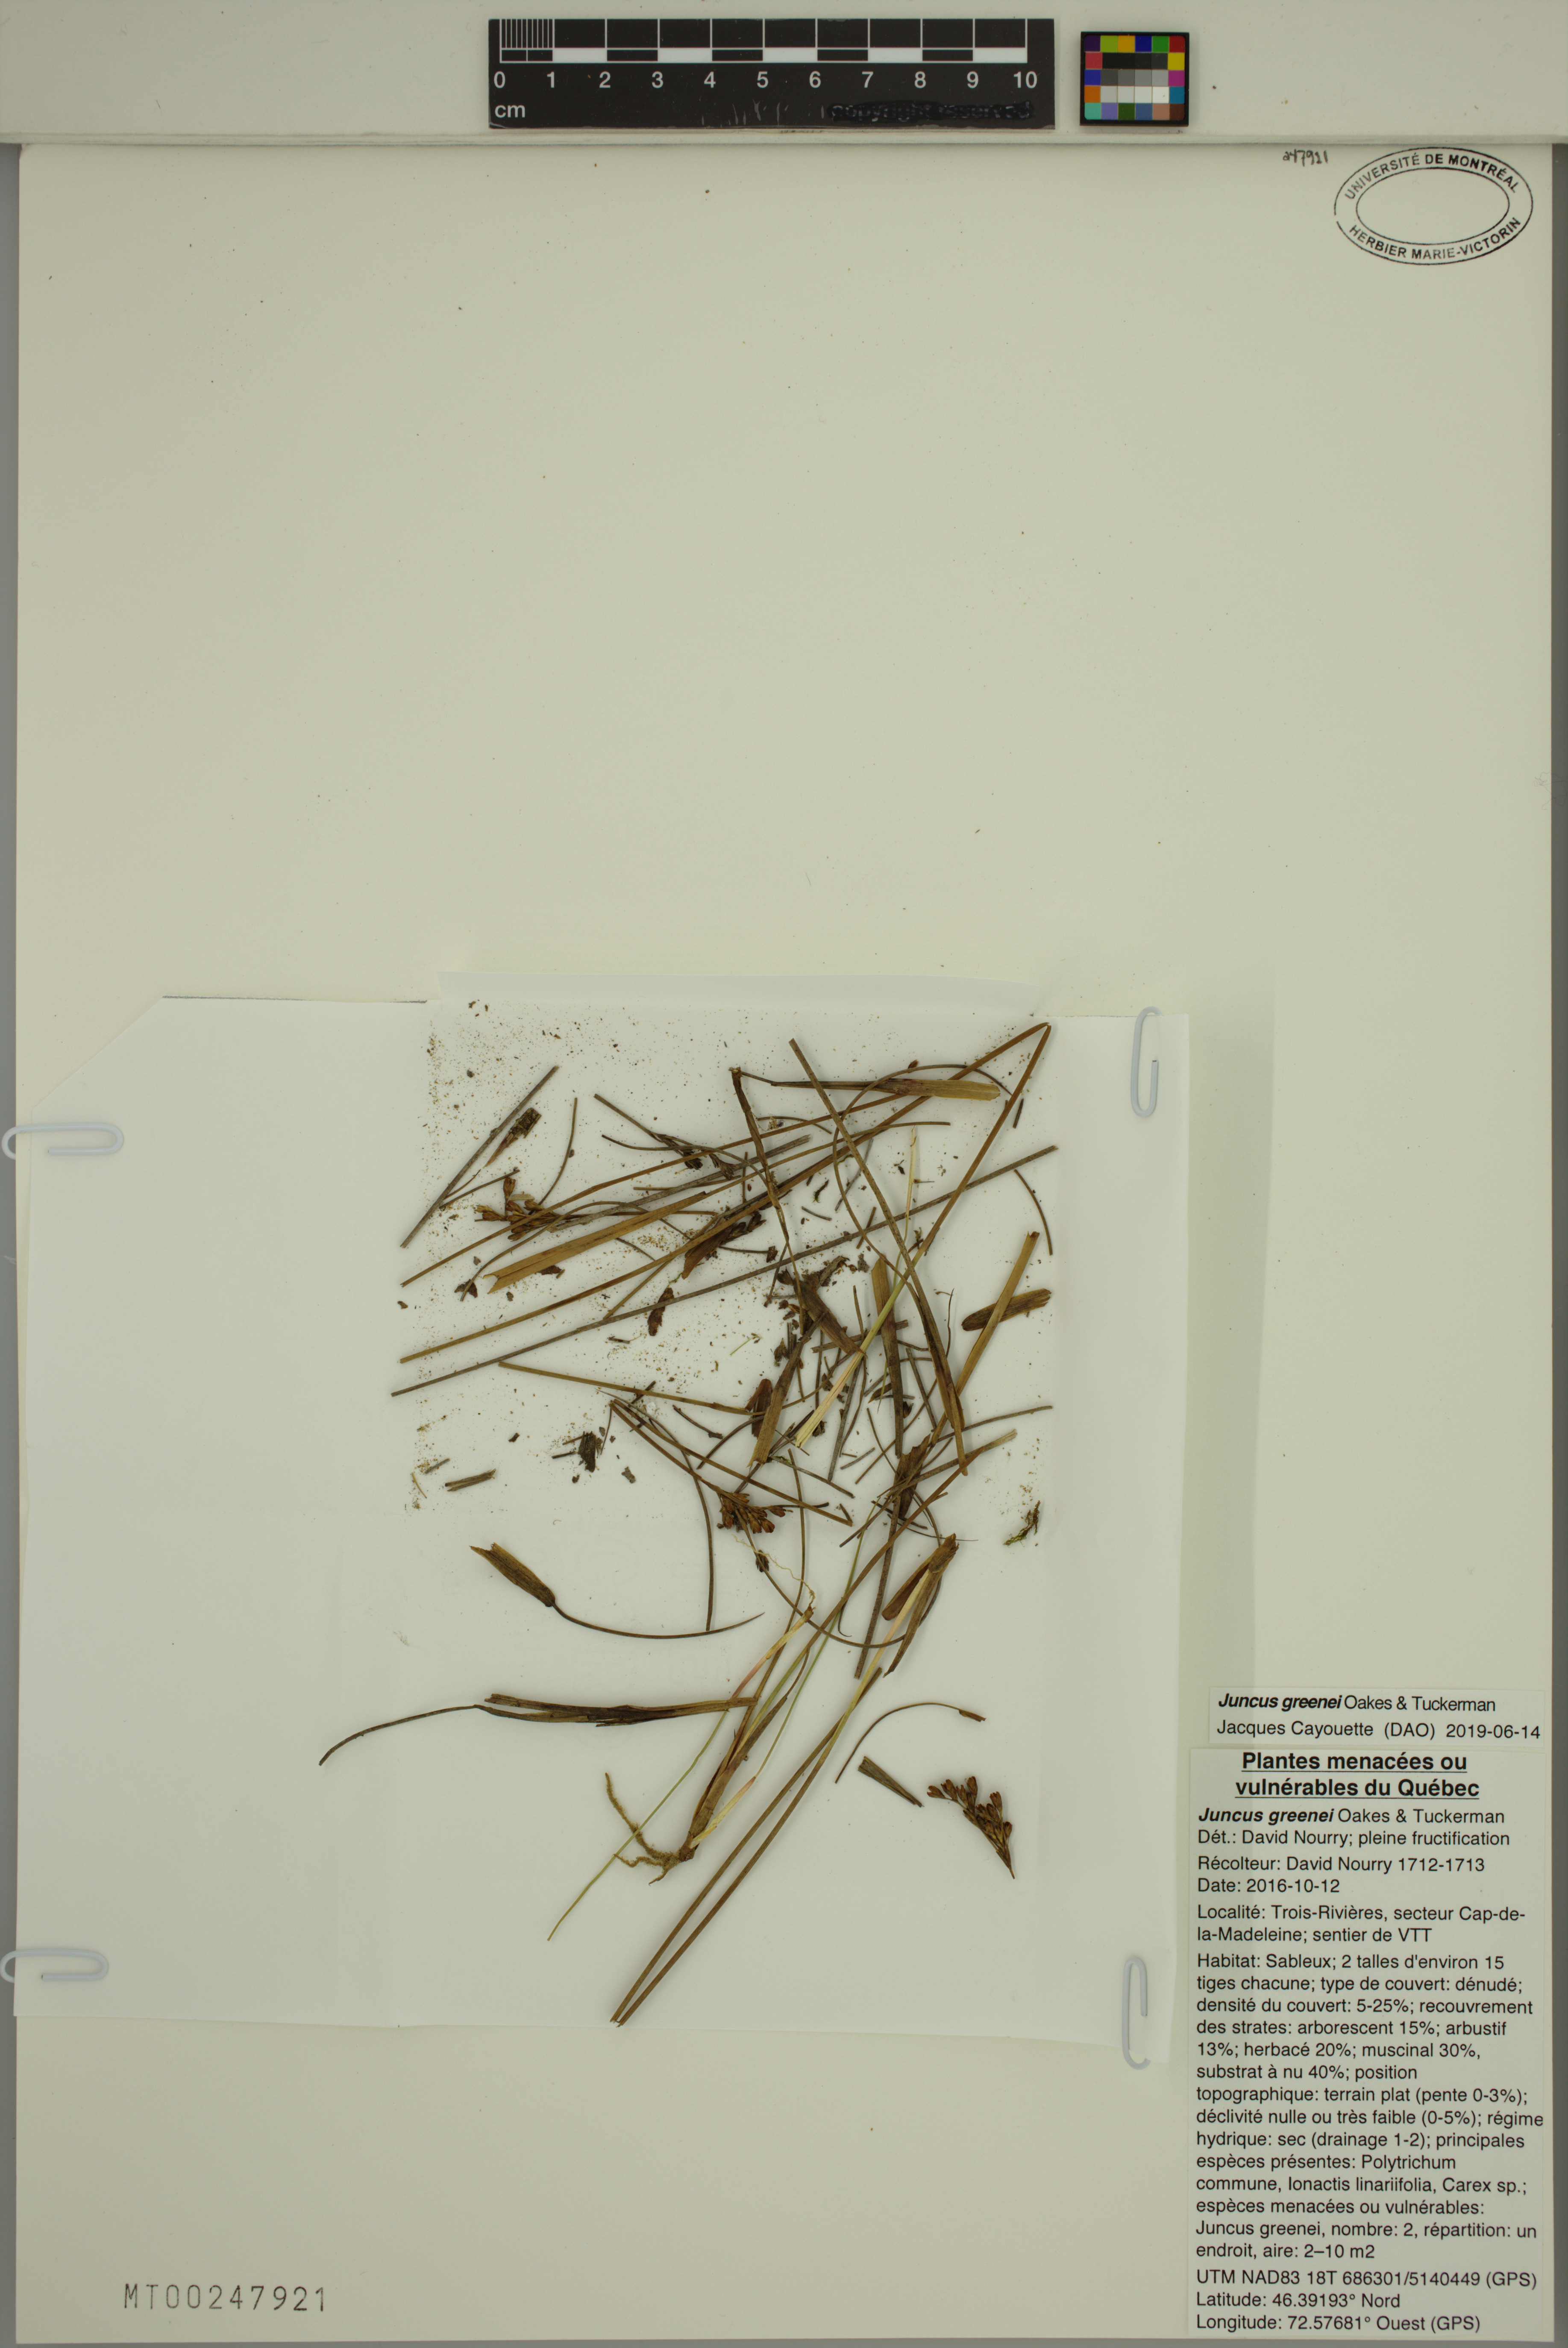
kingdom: Plantae
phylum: Tracheophyta
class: Liliopsida
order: Poales
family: Juncaceae
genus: Juncus
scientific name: Juncus greenei
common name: Greene's rush
